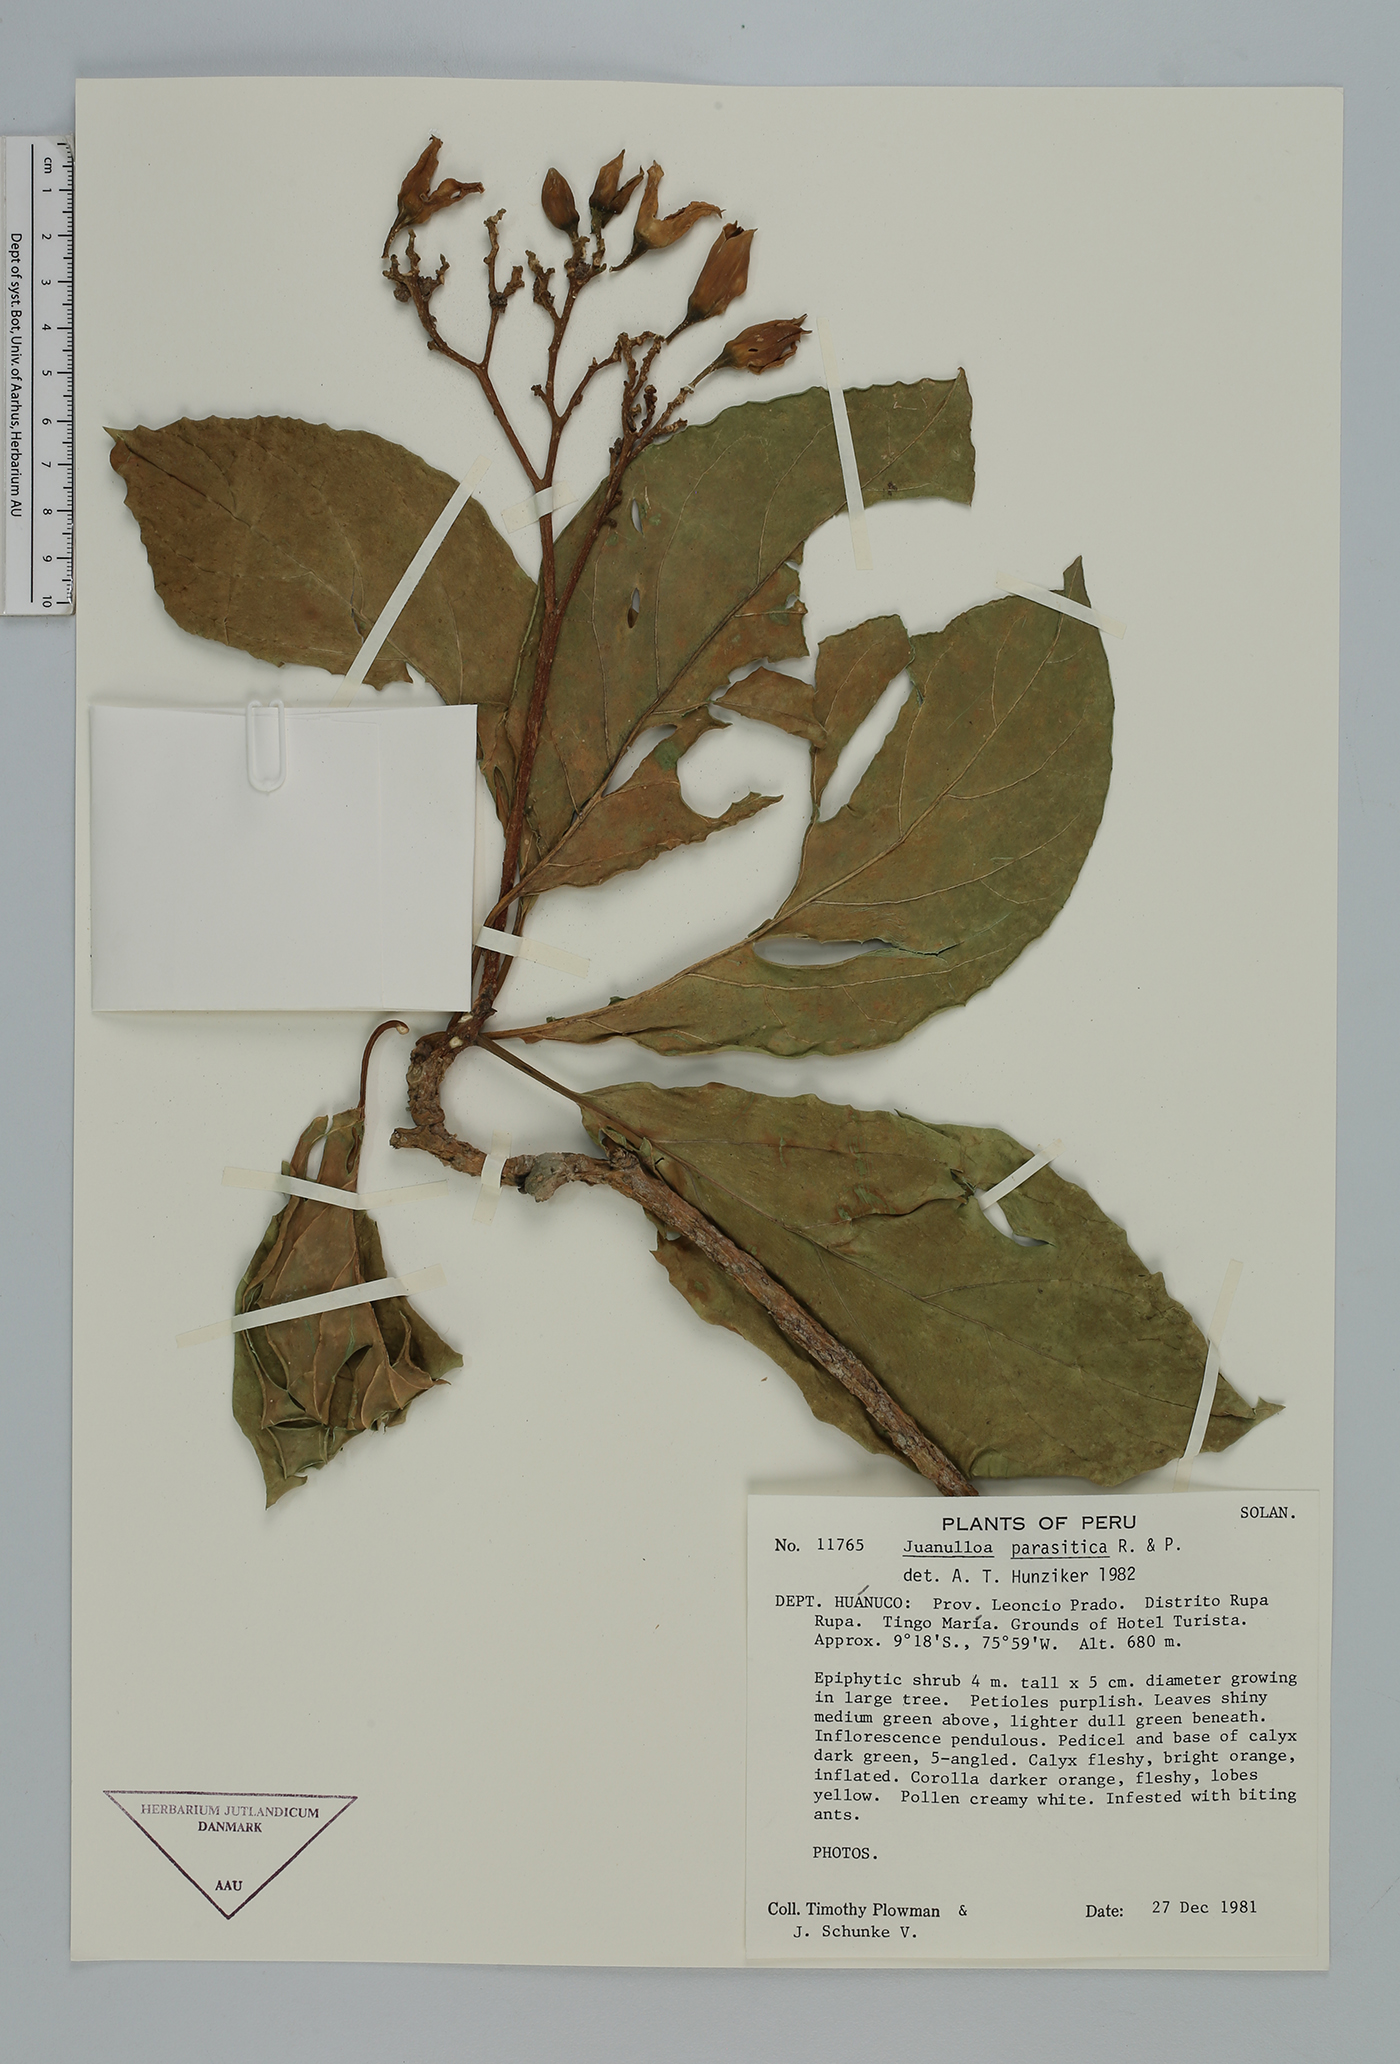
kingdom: Plantae
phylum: Tracheophyta
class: Magnoliopsida
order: Solanales
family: Solanaceae
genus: Juanulloa
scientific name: Juanulloa parasitica
